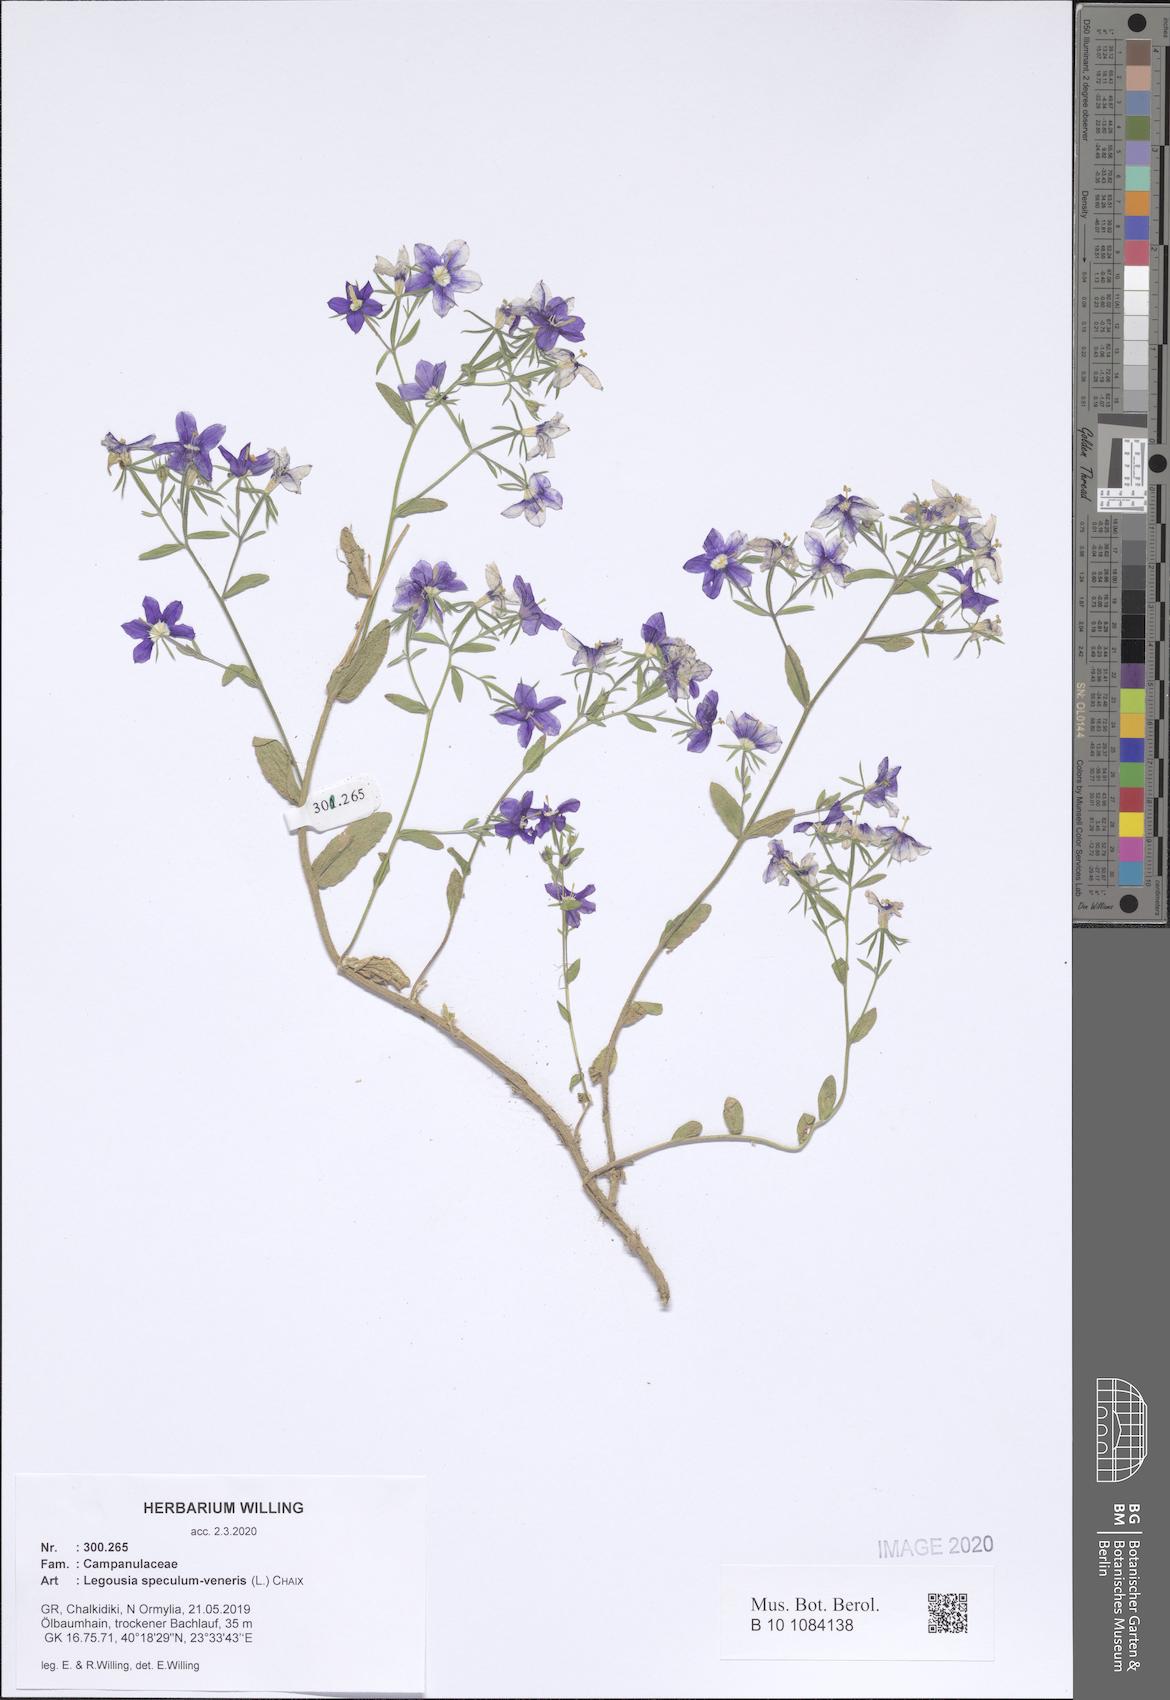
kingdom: Plantae
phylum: Tracheophyta
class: Magnoliopsida
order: Asterales
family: Campanulaceae
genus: Legousia
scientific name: Legousia speculum-veneris
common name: Large venus's-looking-glass
